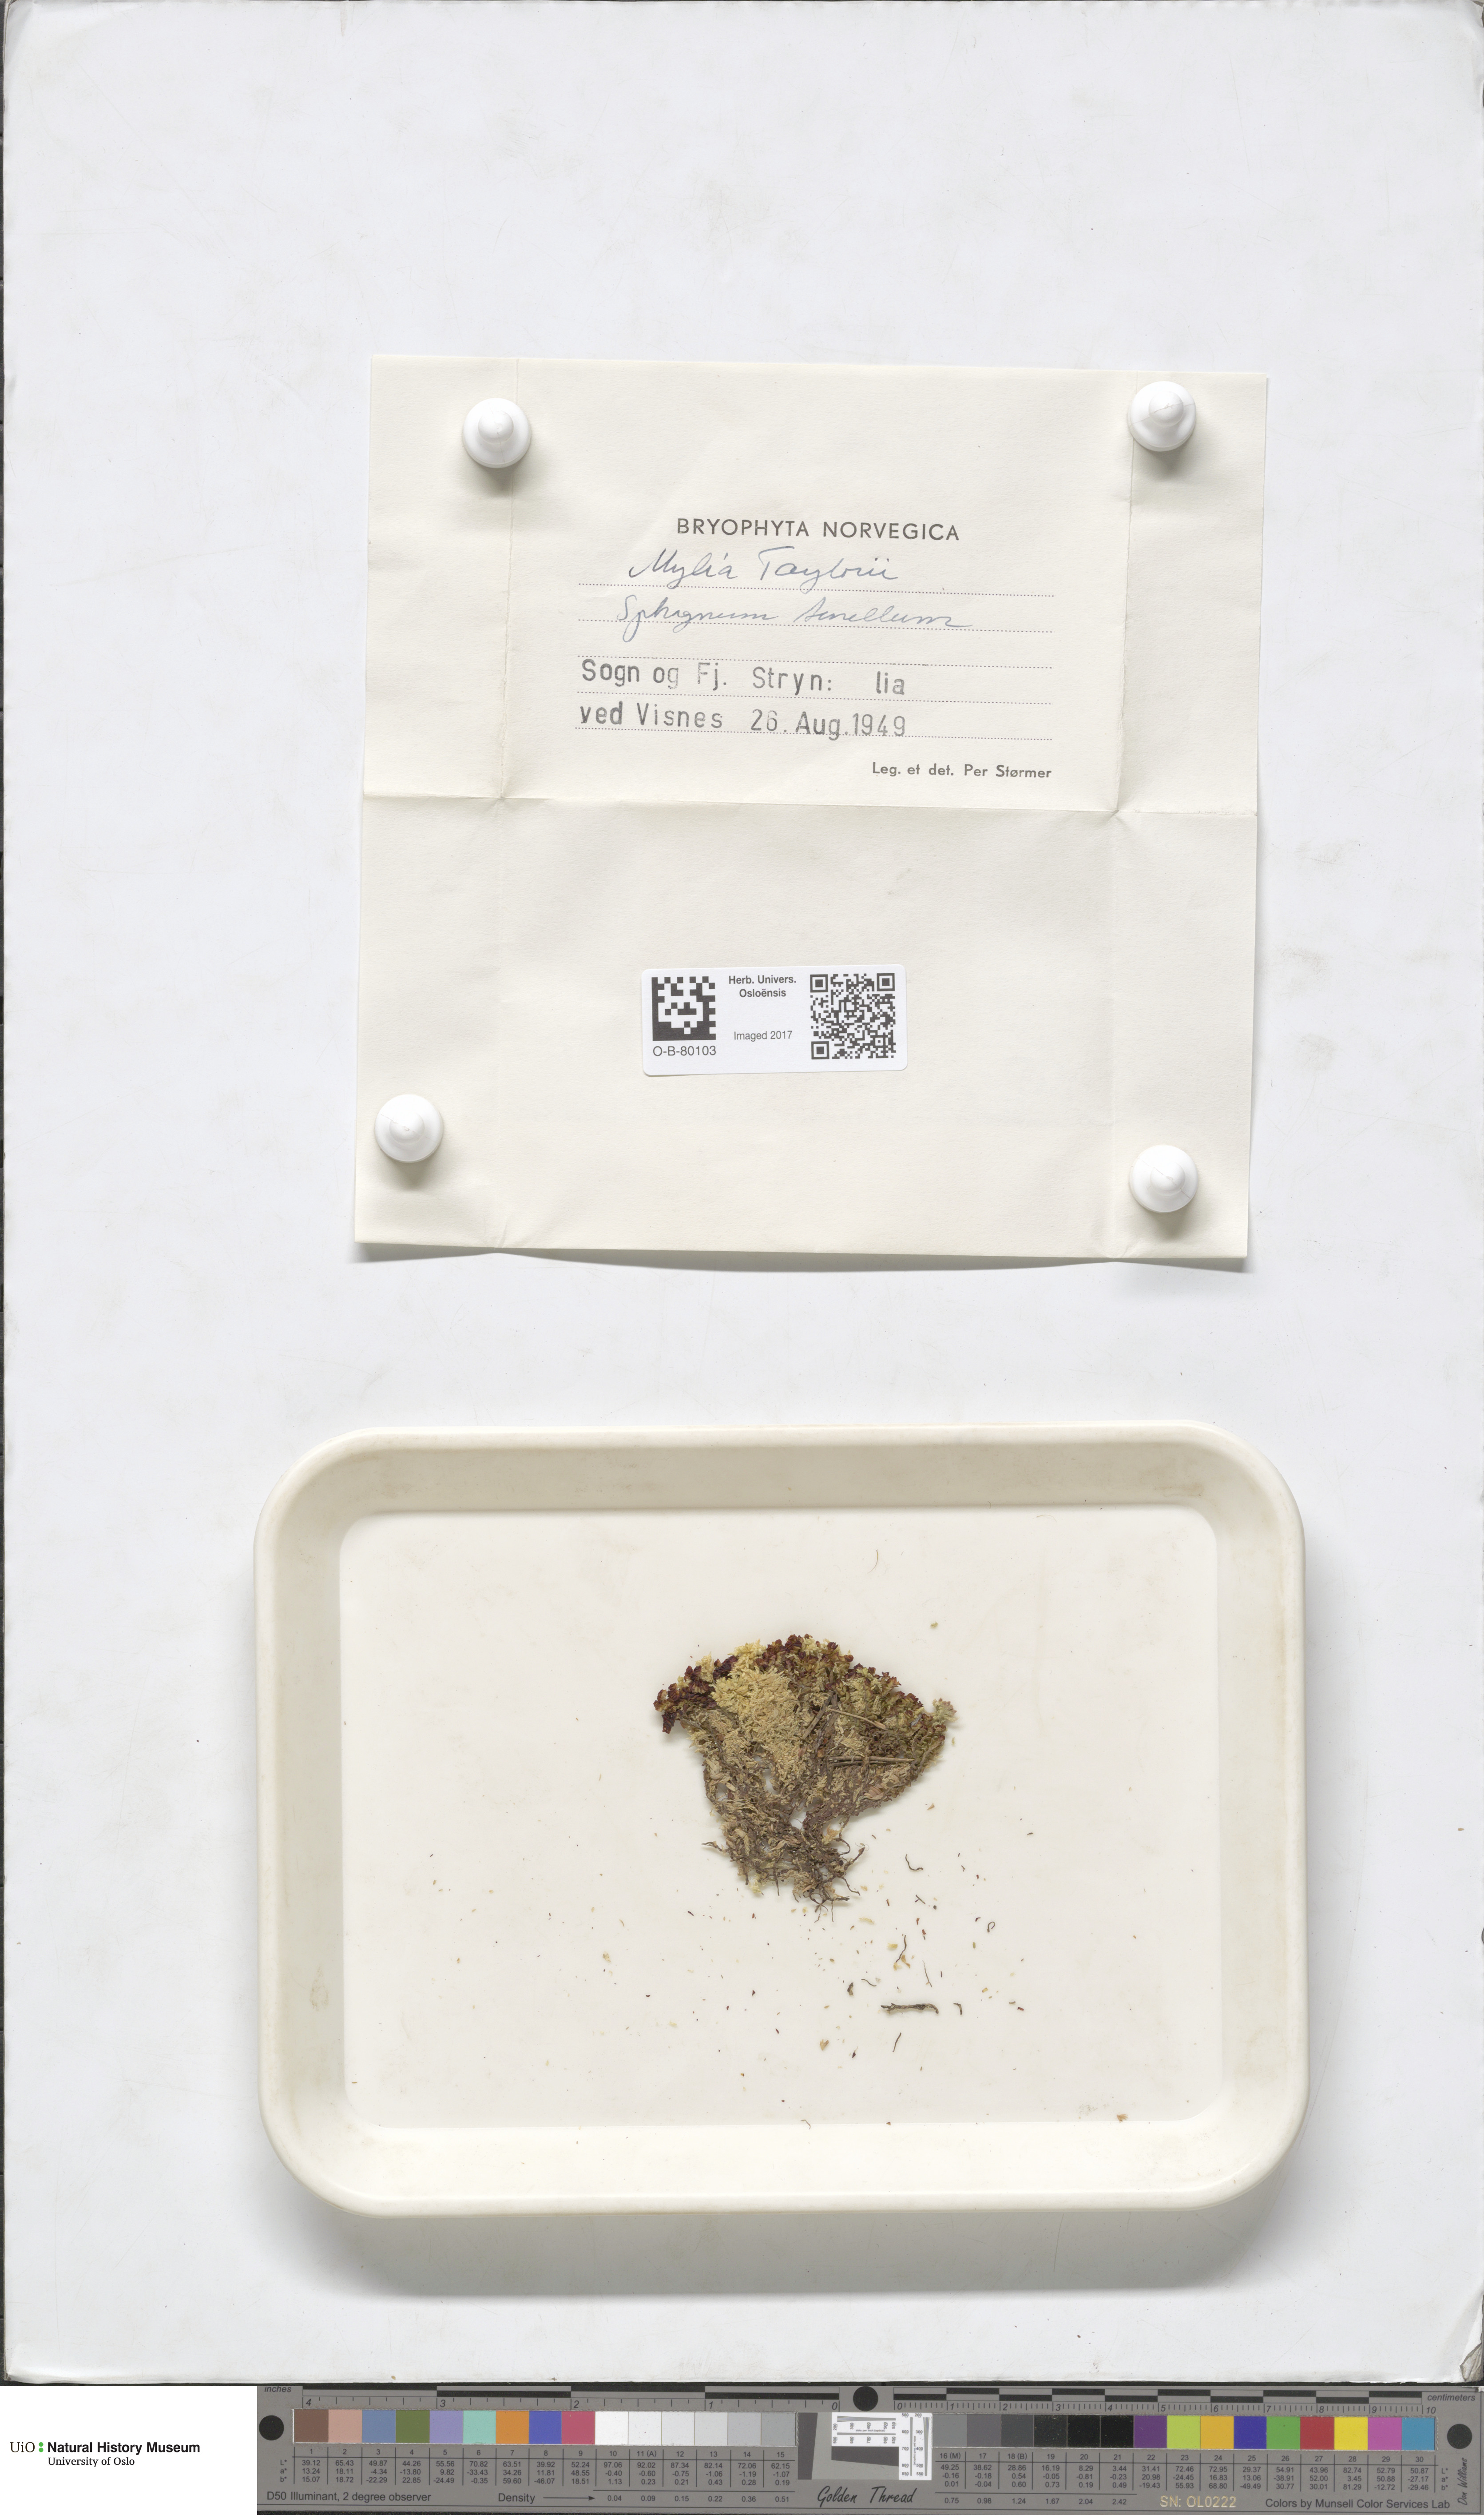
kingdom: Plantae
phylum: Marchantiophyta
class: Jungermanniopsida
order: Jungermanniales
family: Myliaceae
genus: Mylia
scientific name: Mylia taylorii
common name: Taylor s flapwort
